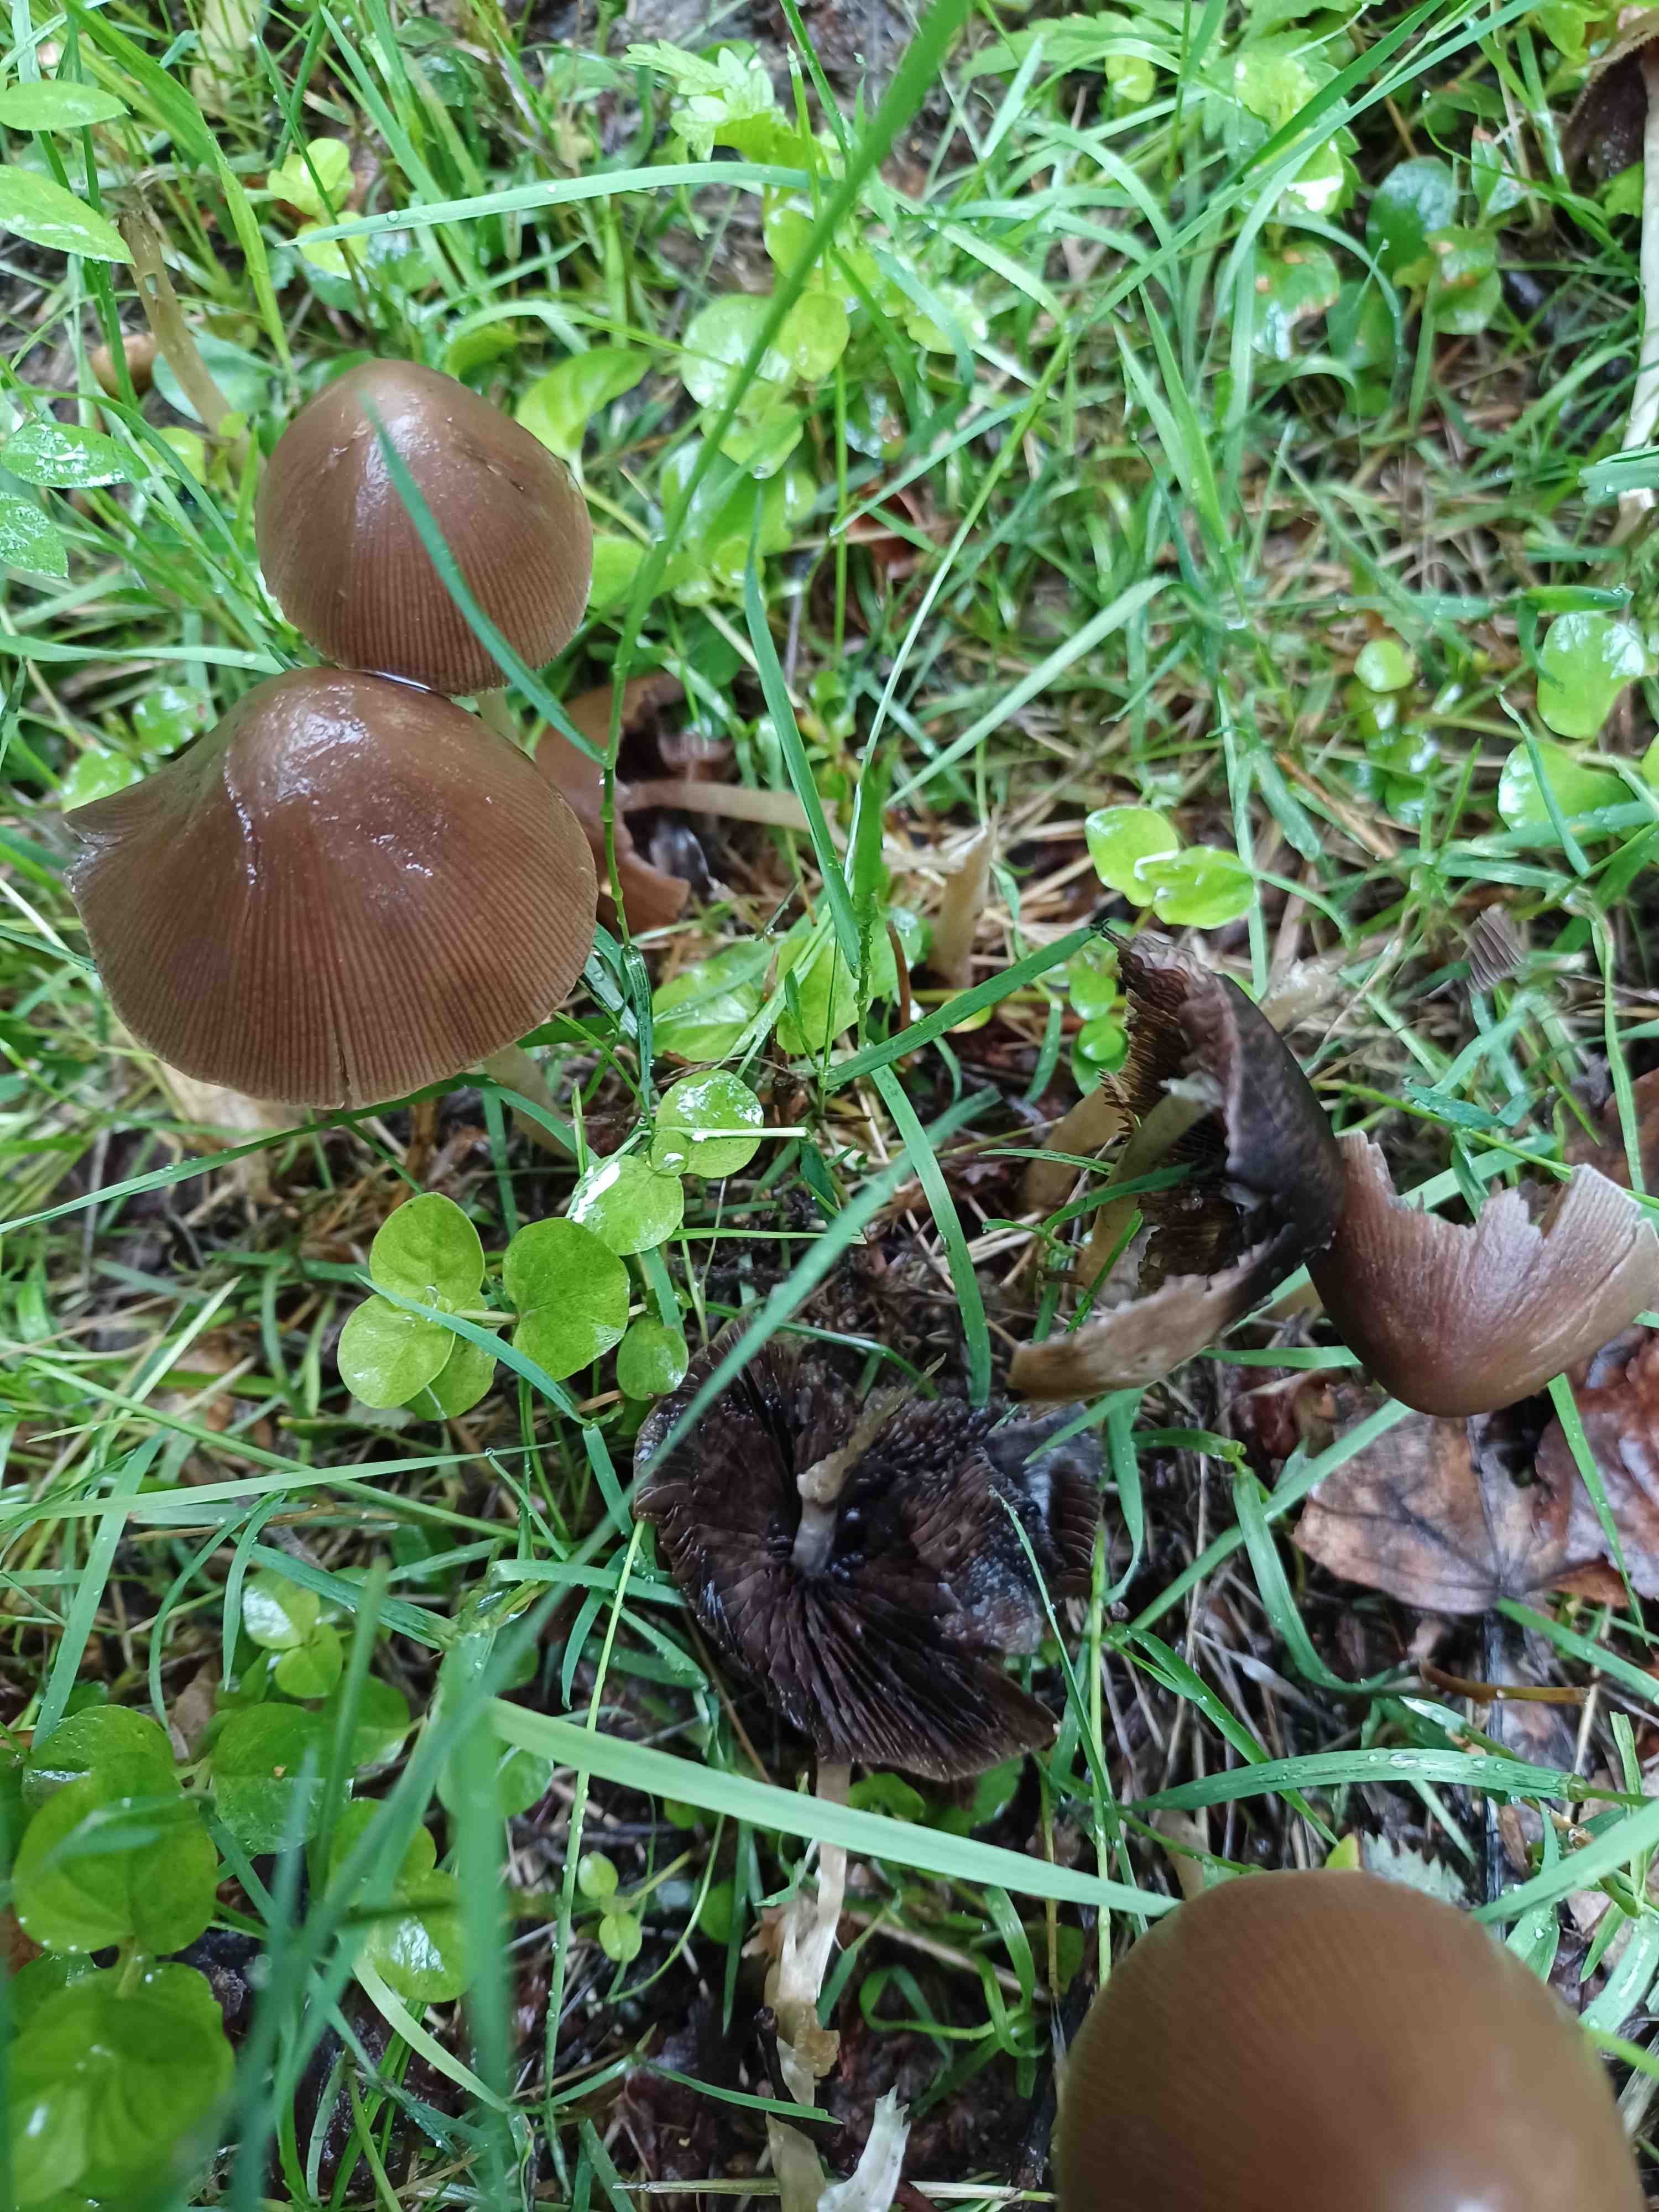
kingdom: Fungi
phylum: Basidiomycota
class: Agaricomycetes
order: Agaricales
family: Psathyrellaceae
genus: Parasola
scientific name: Parasola conopilea
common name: kegle-hjulhat
